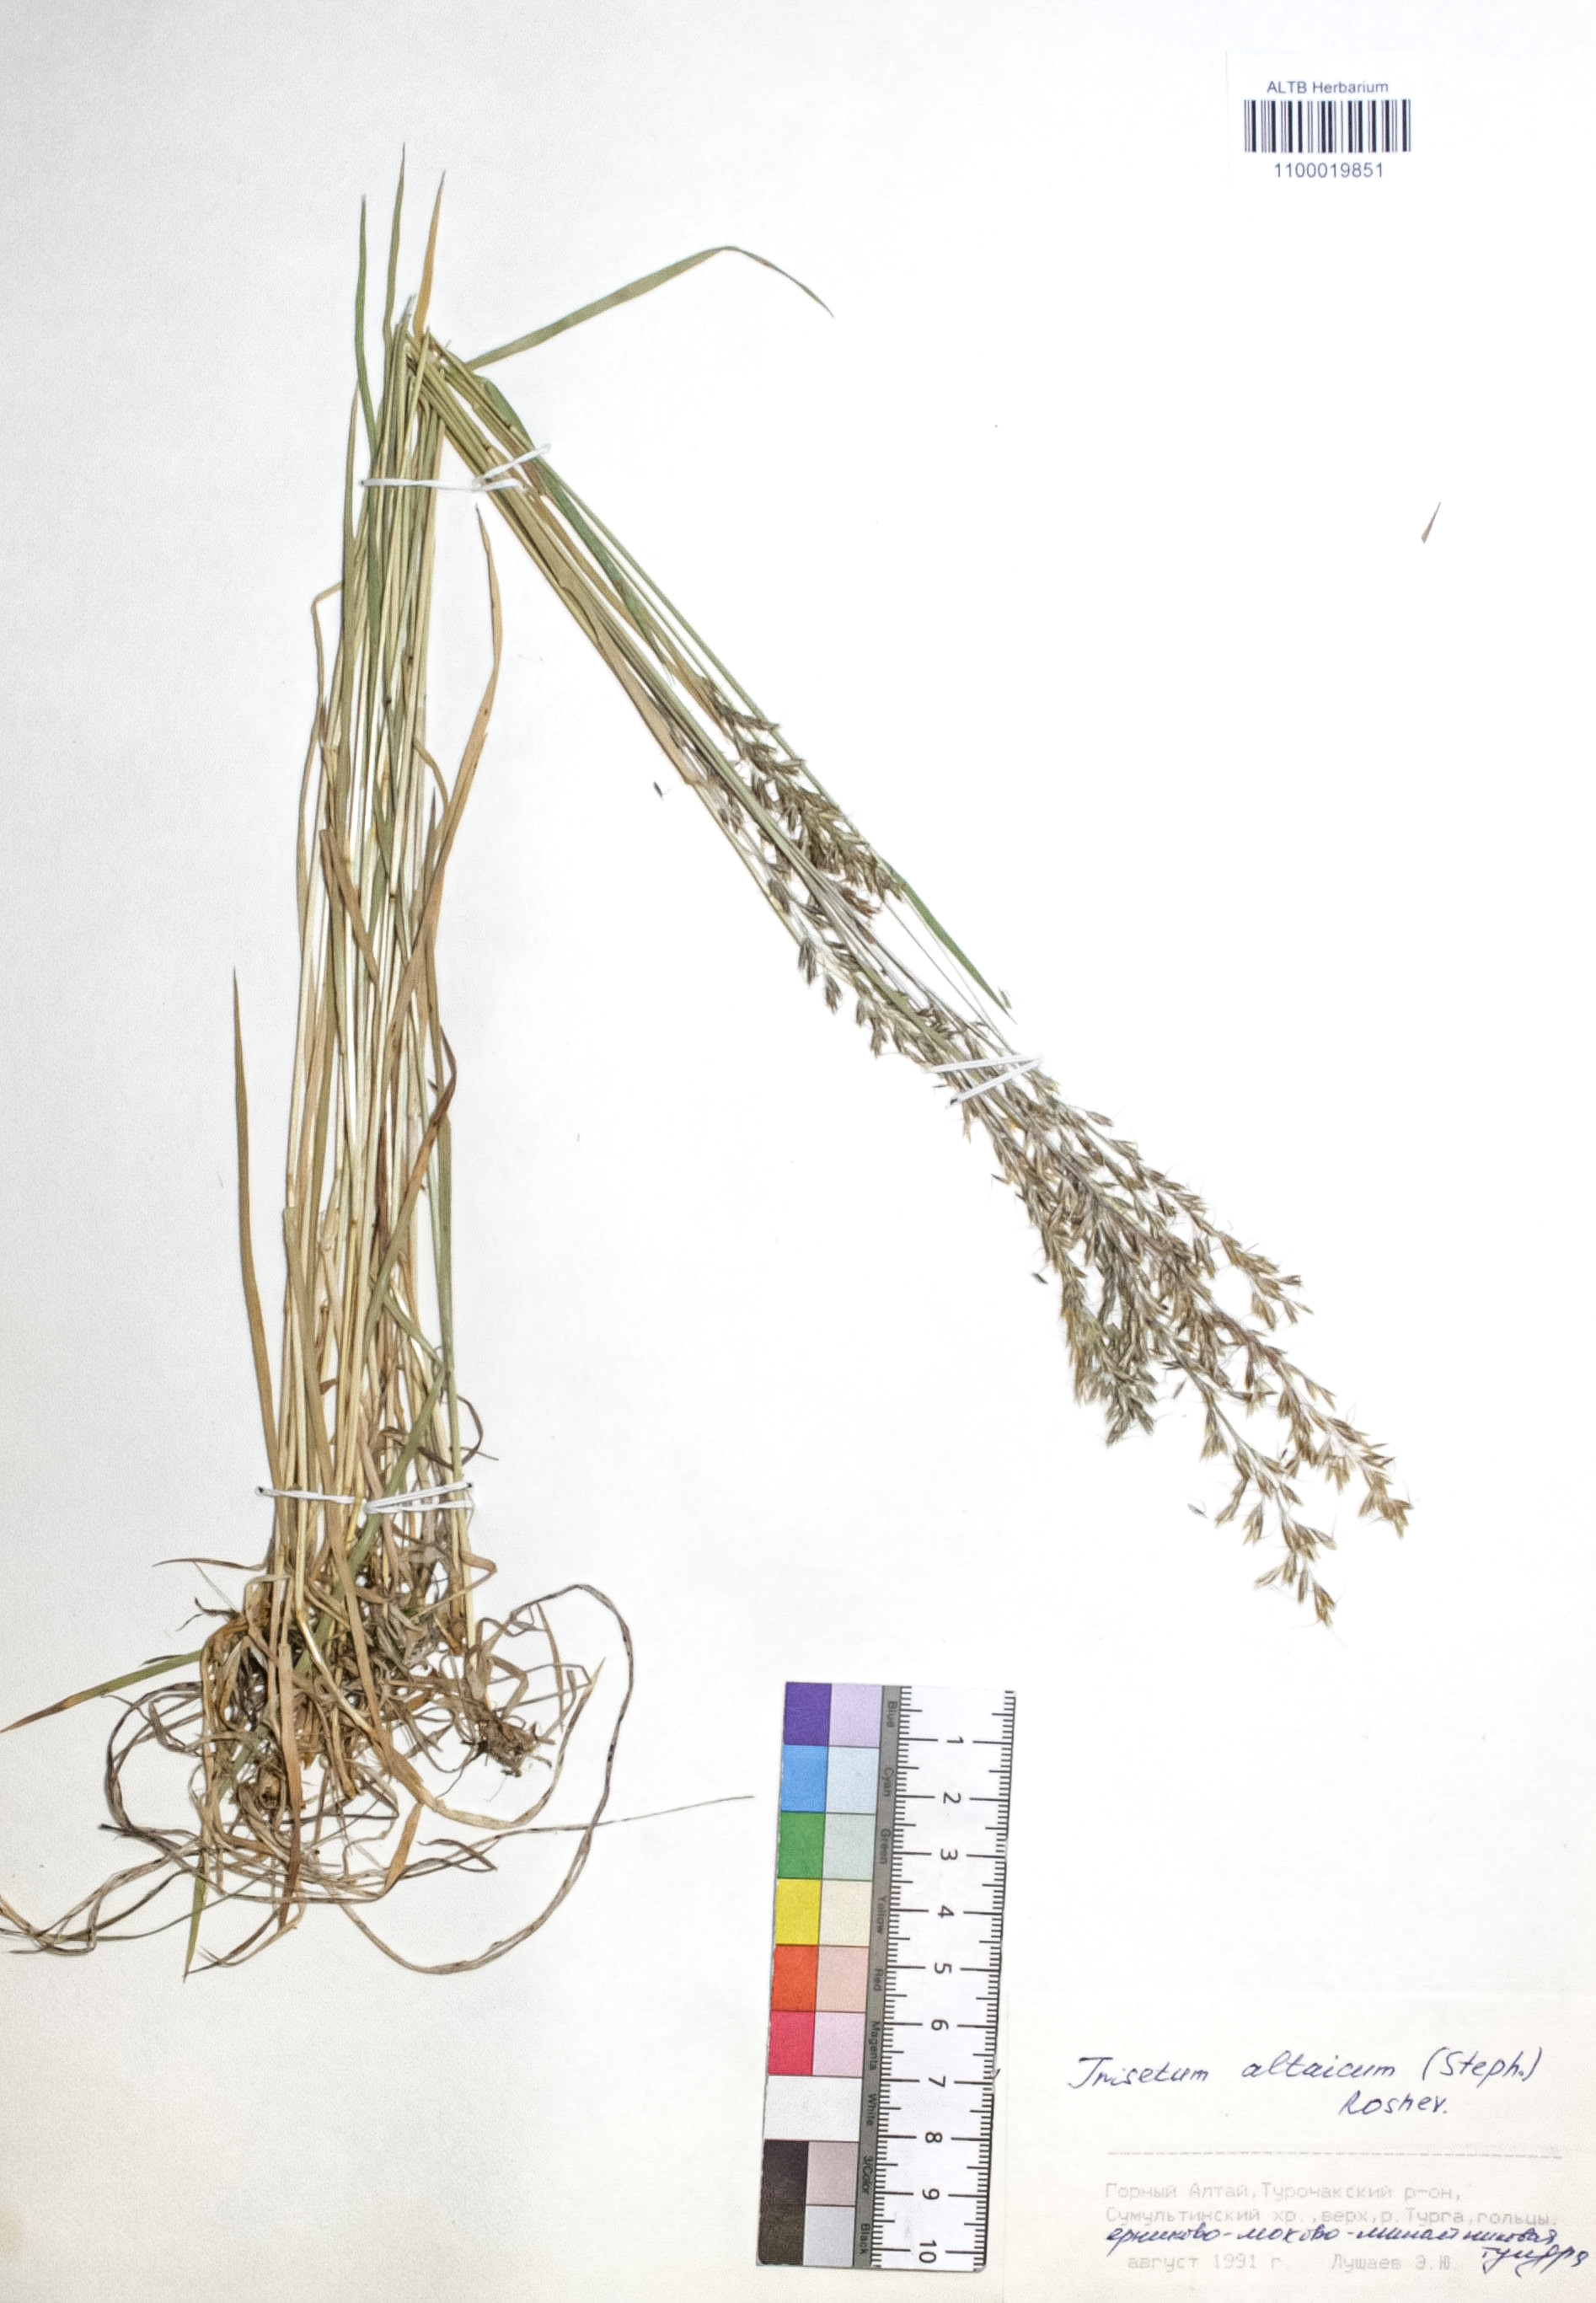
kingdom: Plantae
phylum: Tracheophyta
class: Liliopsida
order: Poales
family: Poaceae
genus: Trisetum
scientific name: Trisetum altaicum
